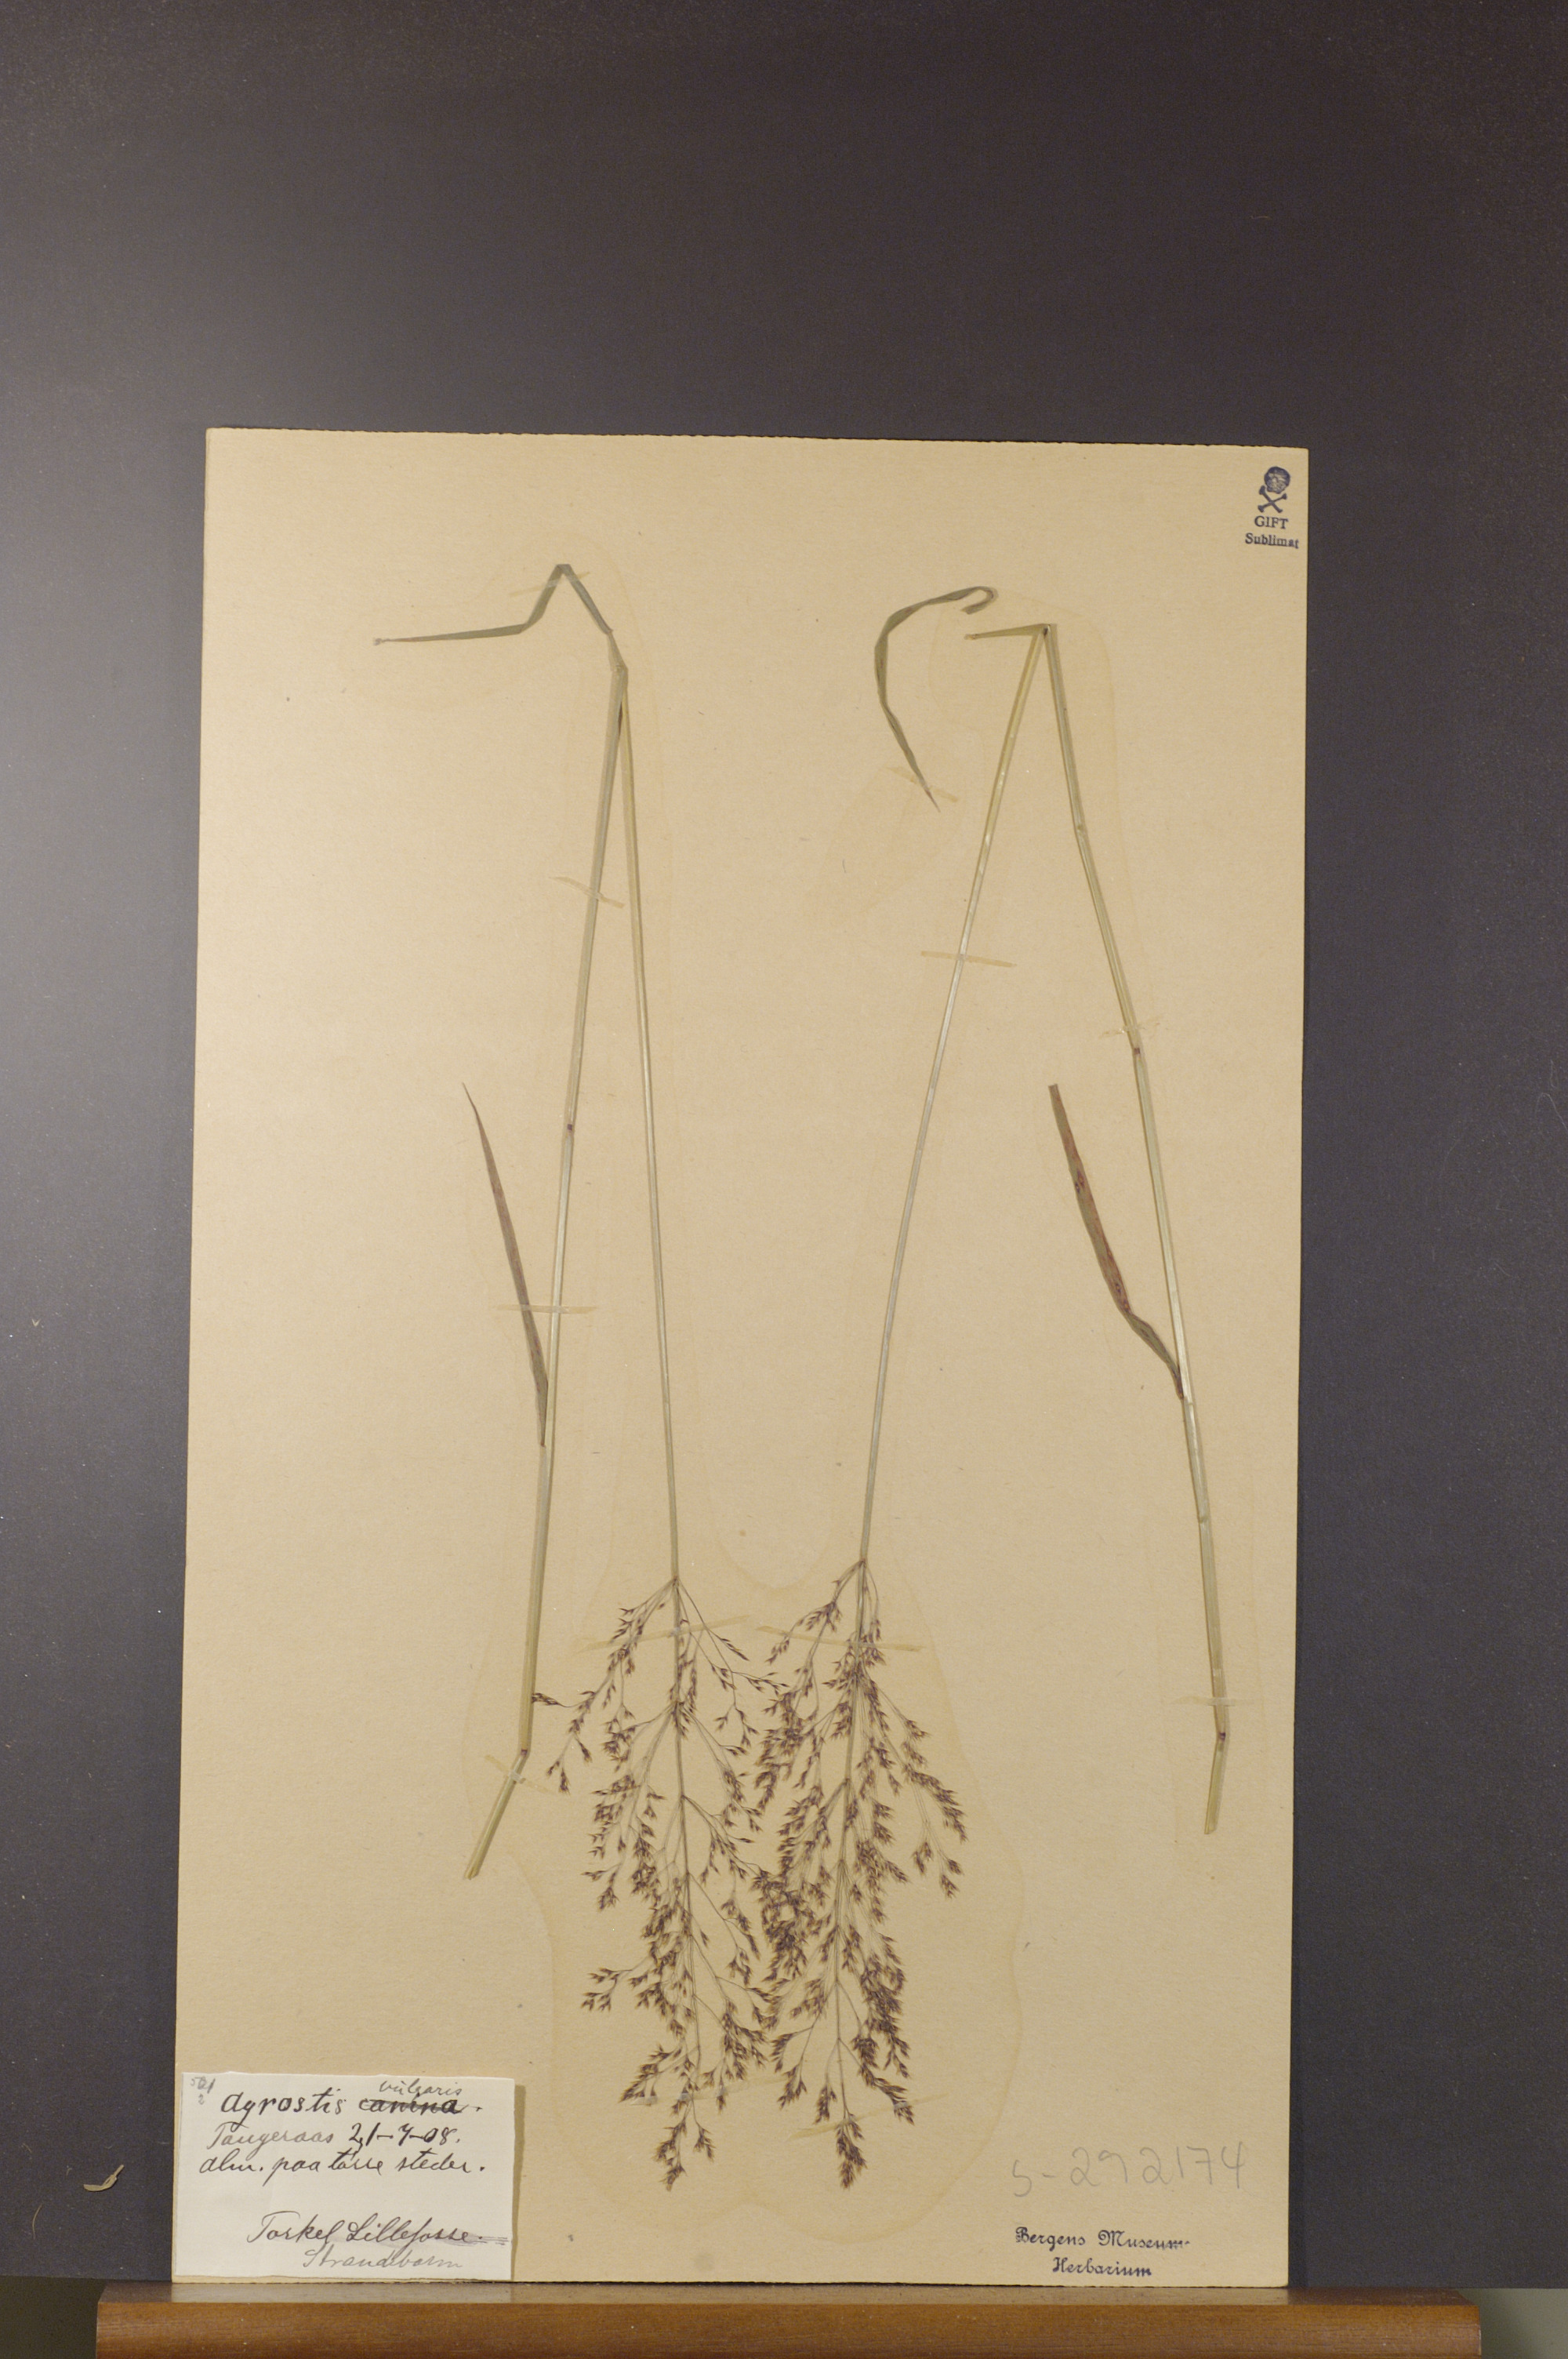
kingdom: Plantae
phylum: Tracheophyta
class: Liliopsida
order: Poales
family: Poaceae
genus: Agrostis
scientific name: Agrostis capillaris
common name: Colonial bentgrass
